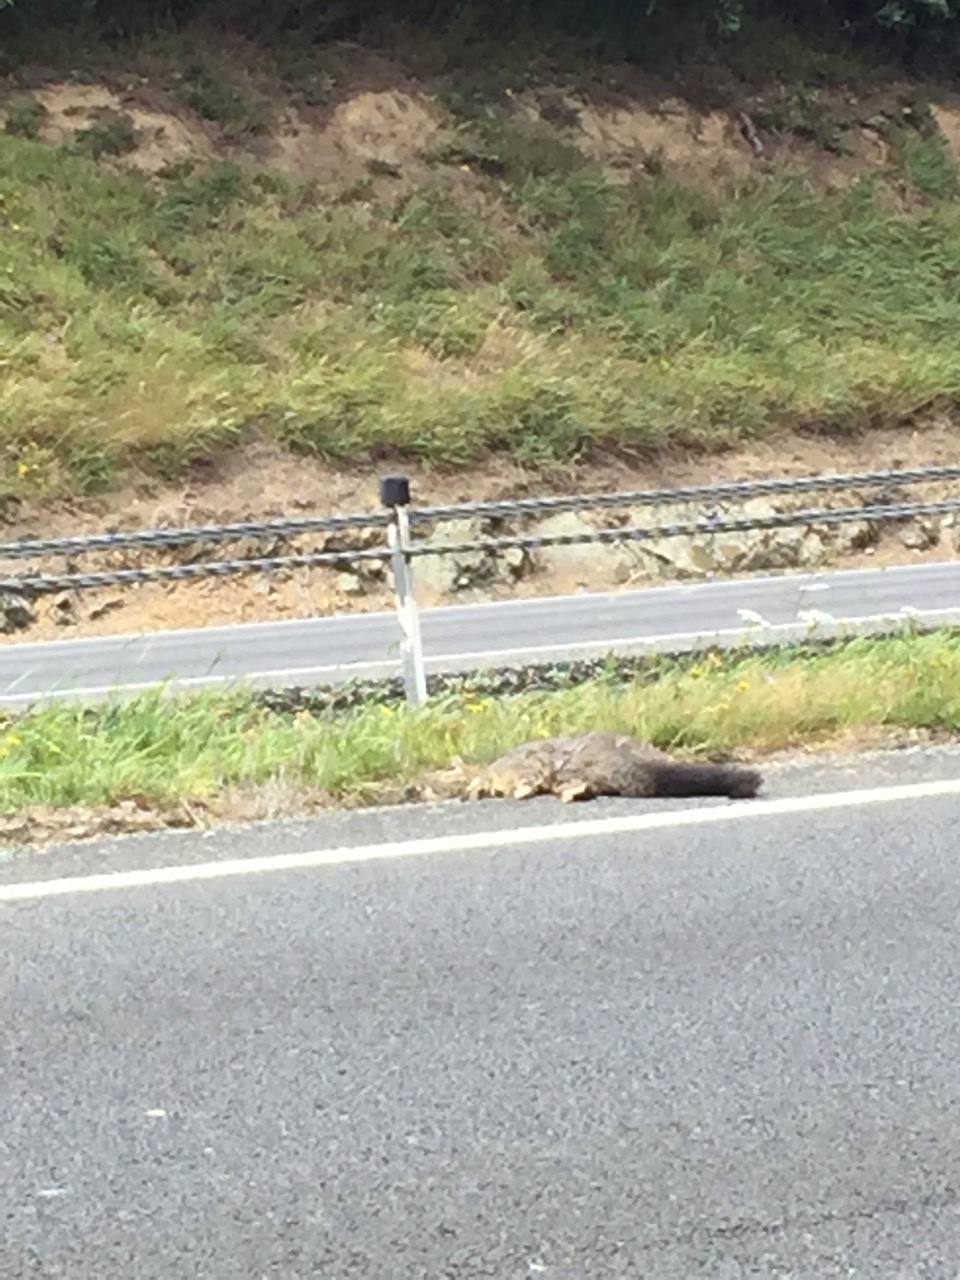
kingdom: Animalia
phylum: Chordata
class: Mammalia
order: Diprotodontia
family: Phalangeridae
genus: Trichosurus
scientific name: Trichosurus vulpecula
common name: Common brushtail
